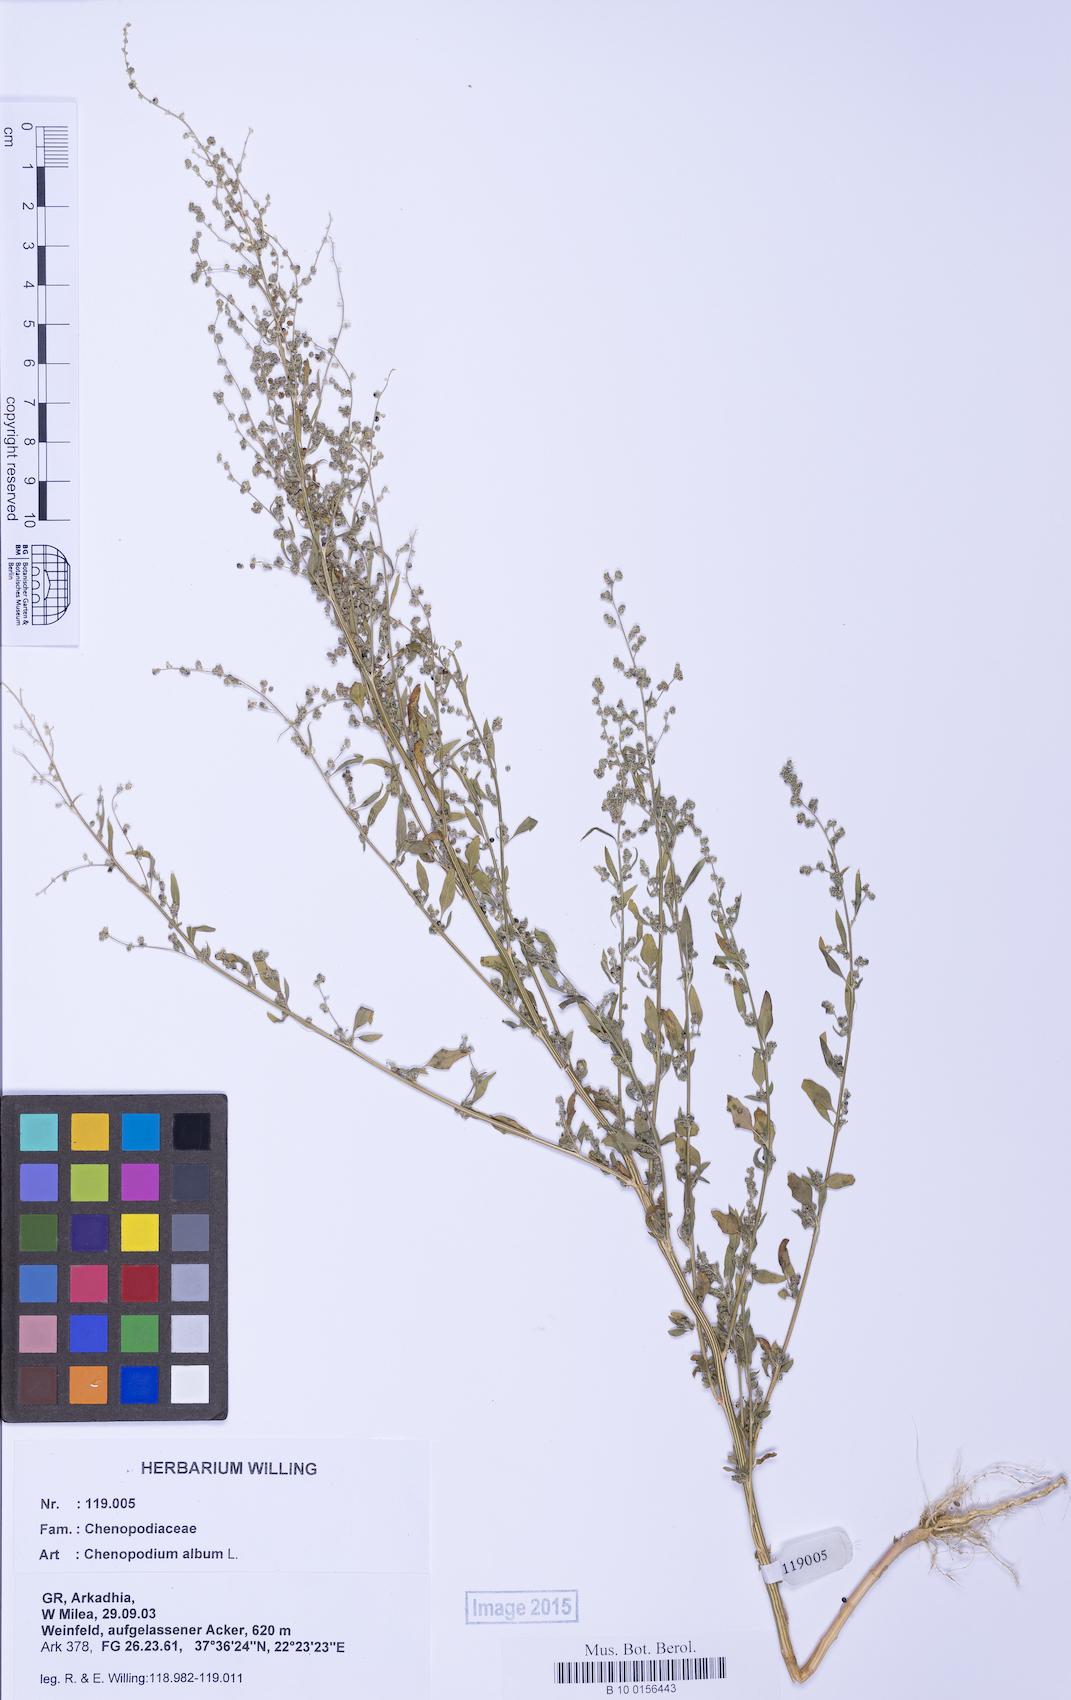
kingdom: Plantae
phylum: Tracheophyta
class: Magnoliopsida
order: Caryophyllales
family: Amaranthaceae
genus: Chenopodium
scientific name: Chenopodium album
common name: Fat-hen
